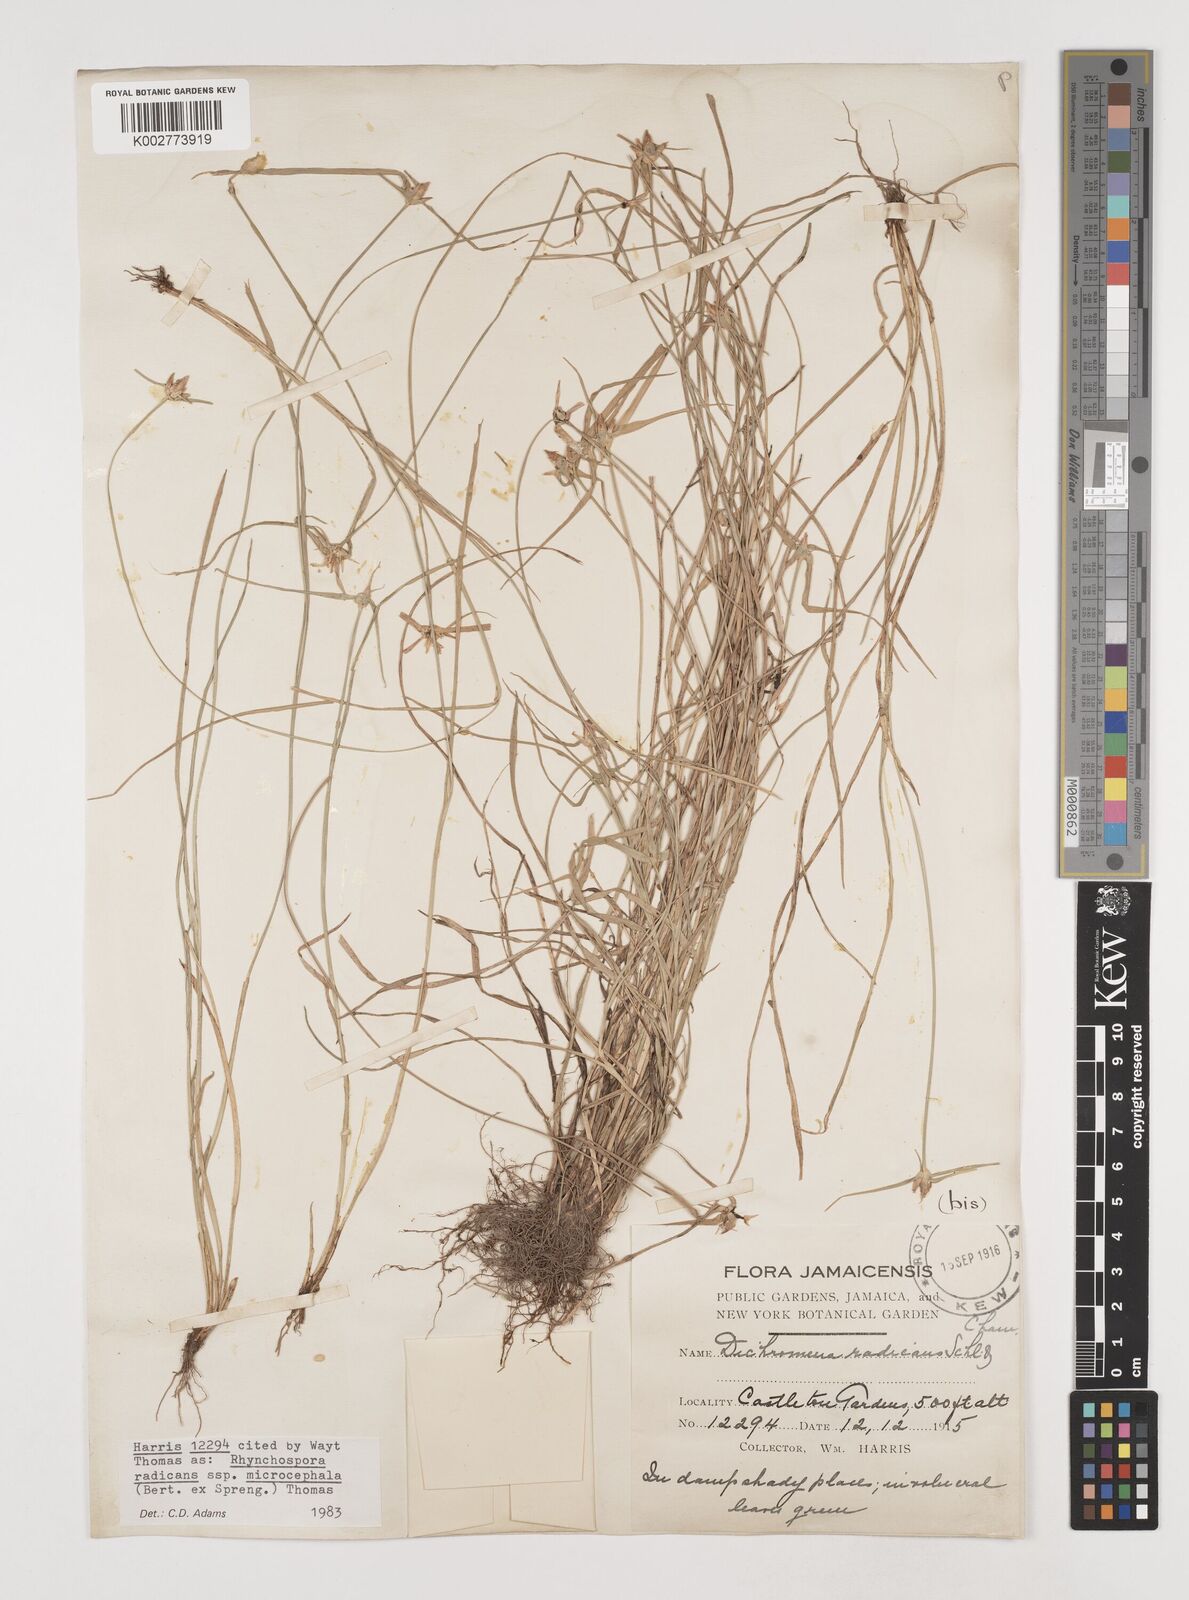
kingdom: Plantae
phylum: Tracheophyta
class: Liliopsida
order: Poales
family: Cyperaceae
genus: Rhynchospora
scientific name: Rhynchospora radicans
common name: Tropical whitetop
